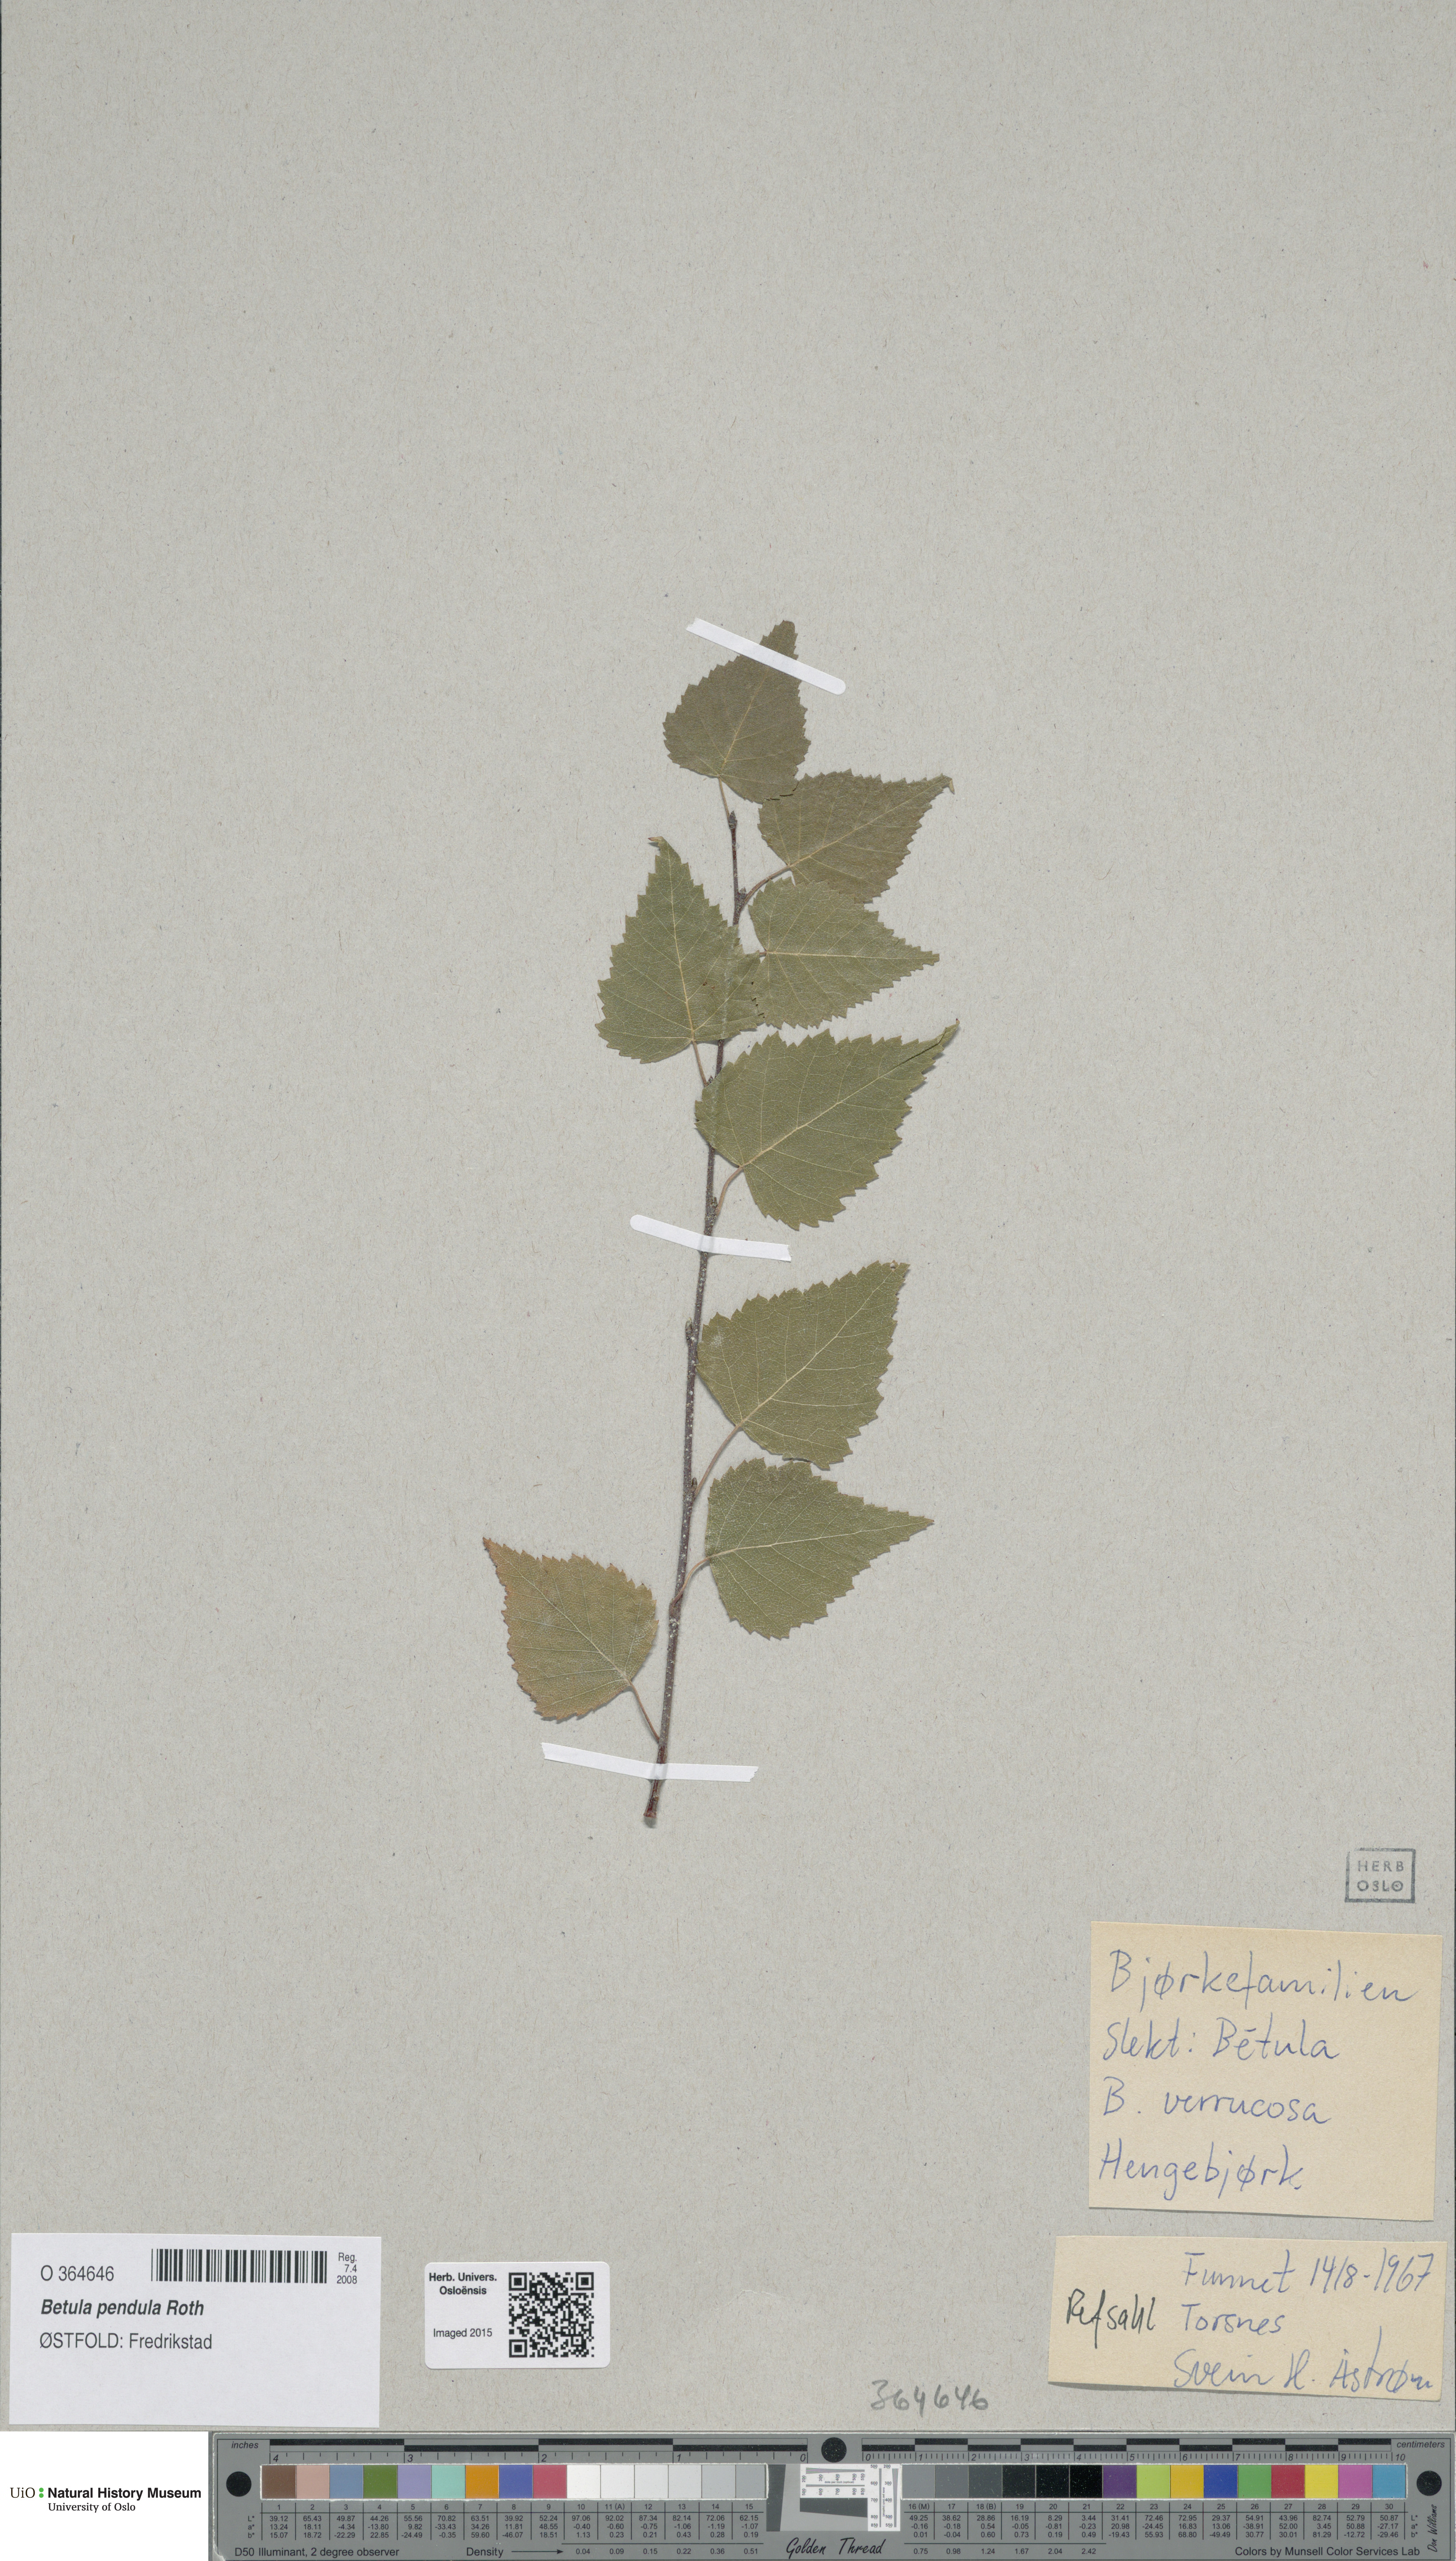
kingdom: Plantae
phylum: Tracheophyta
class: Magnoliopsida
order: Fagales
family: Betulaceae
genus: Betula
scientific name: Betula pendula
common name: Silver birch
